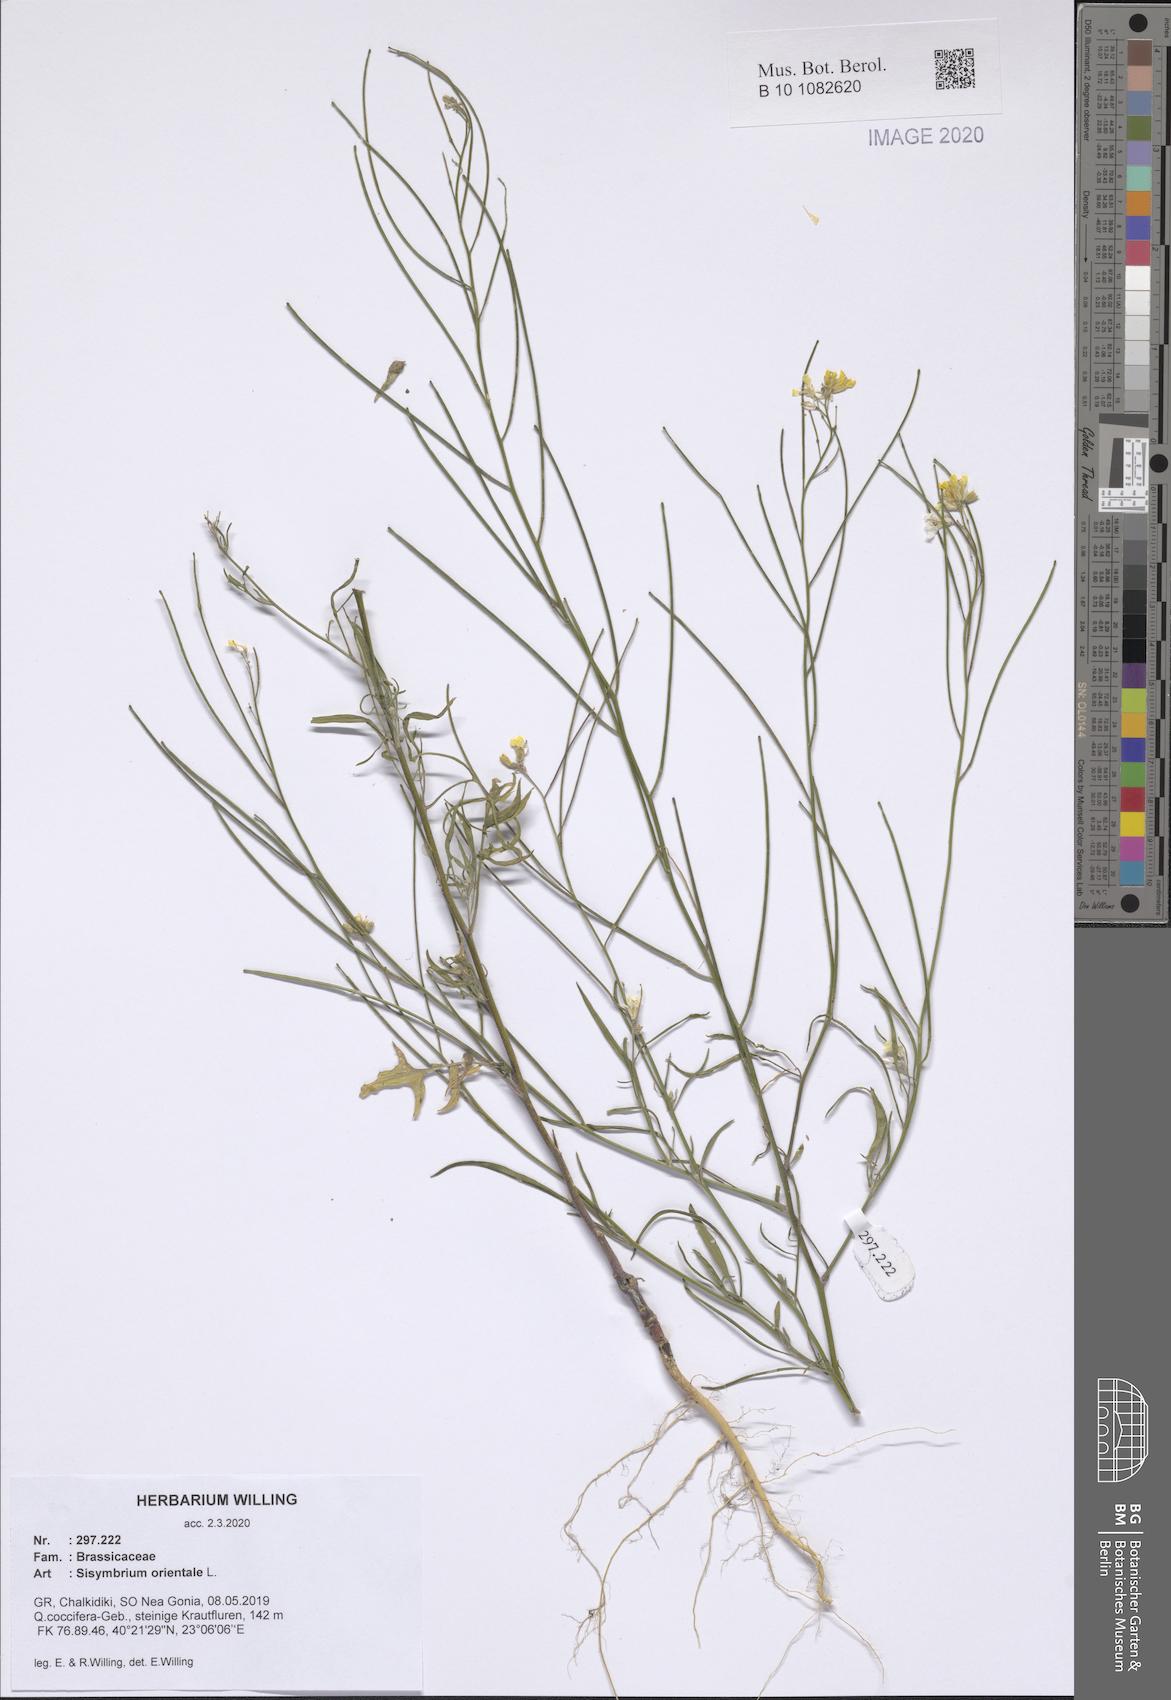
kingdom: Plantae
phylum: Tracheophyta
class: Magnoliopsida
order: Brassicales
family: Brassicaceae
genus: Sisymbrium
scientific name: Sisymbrium orientale
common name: Eastern rocket
